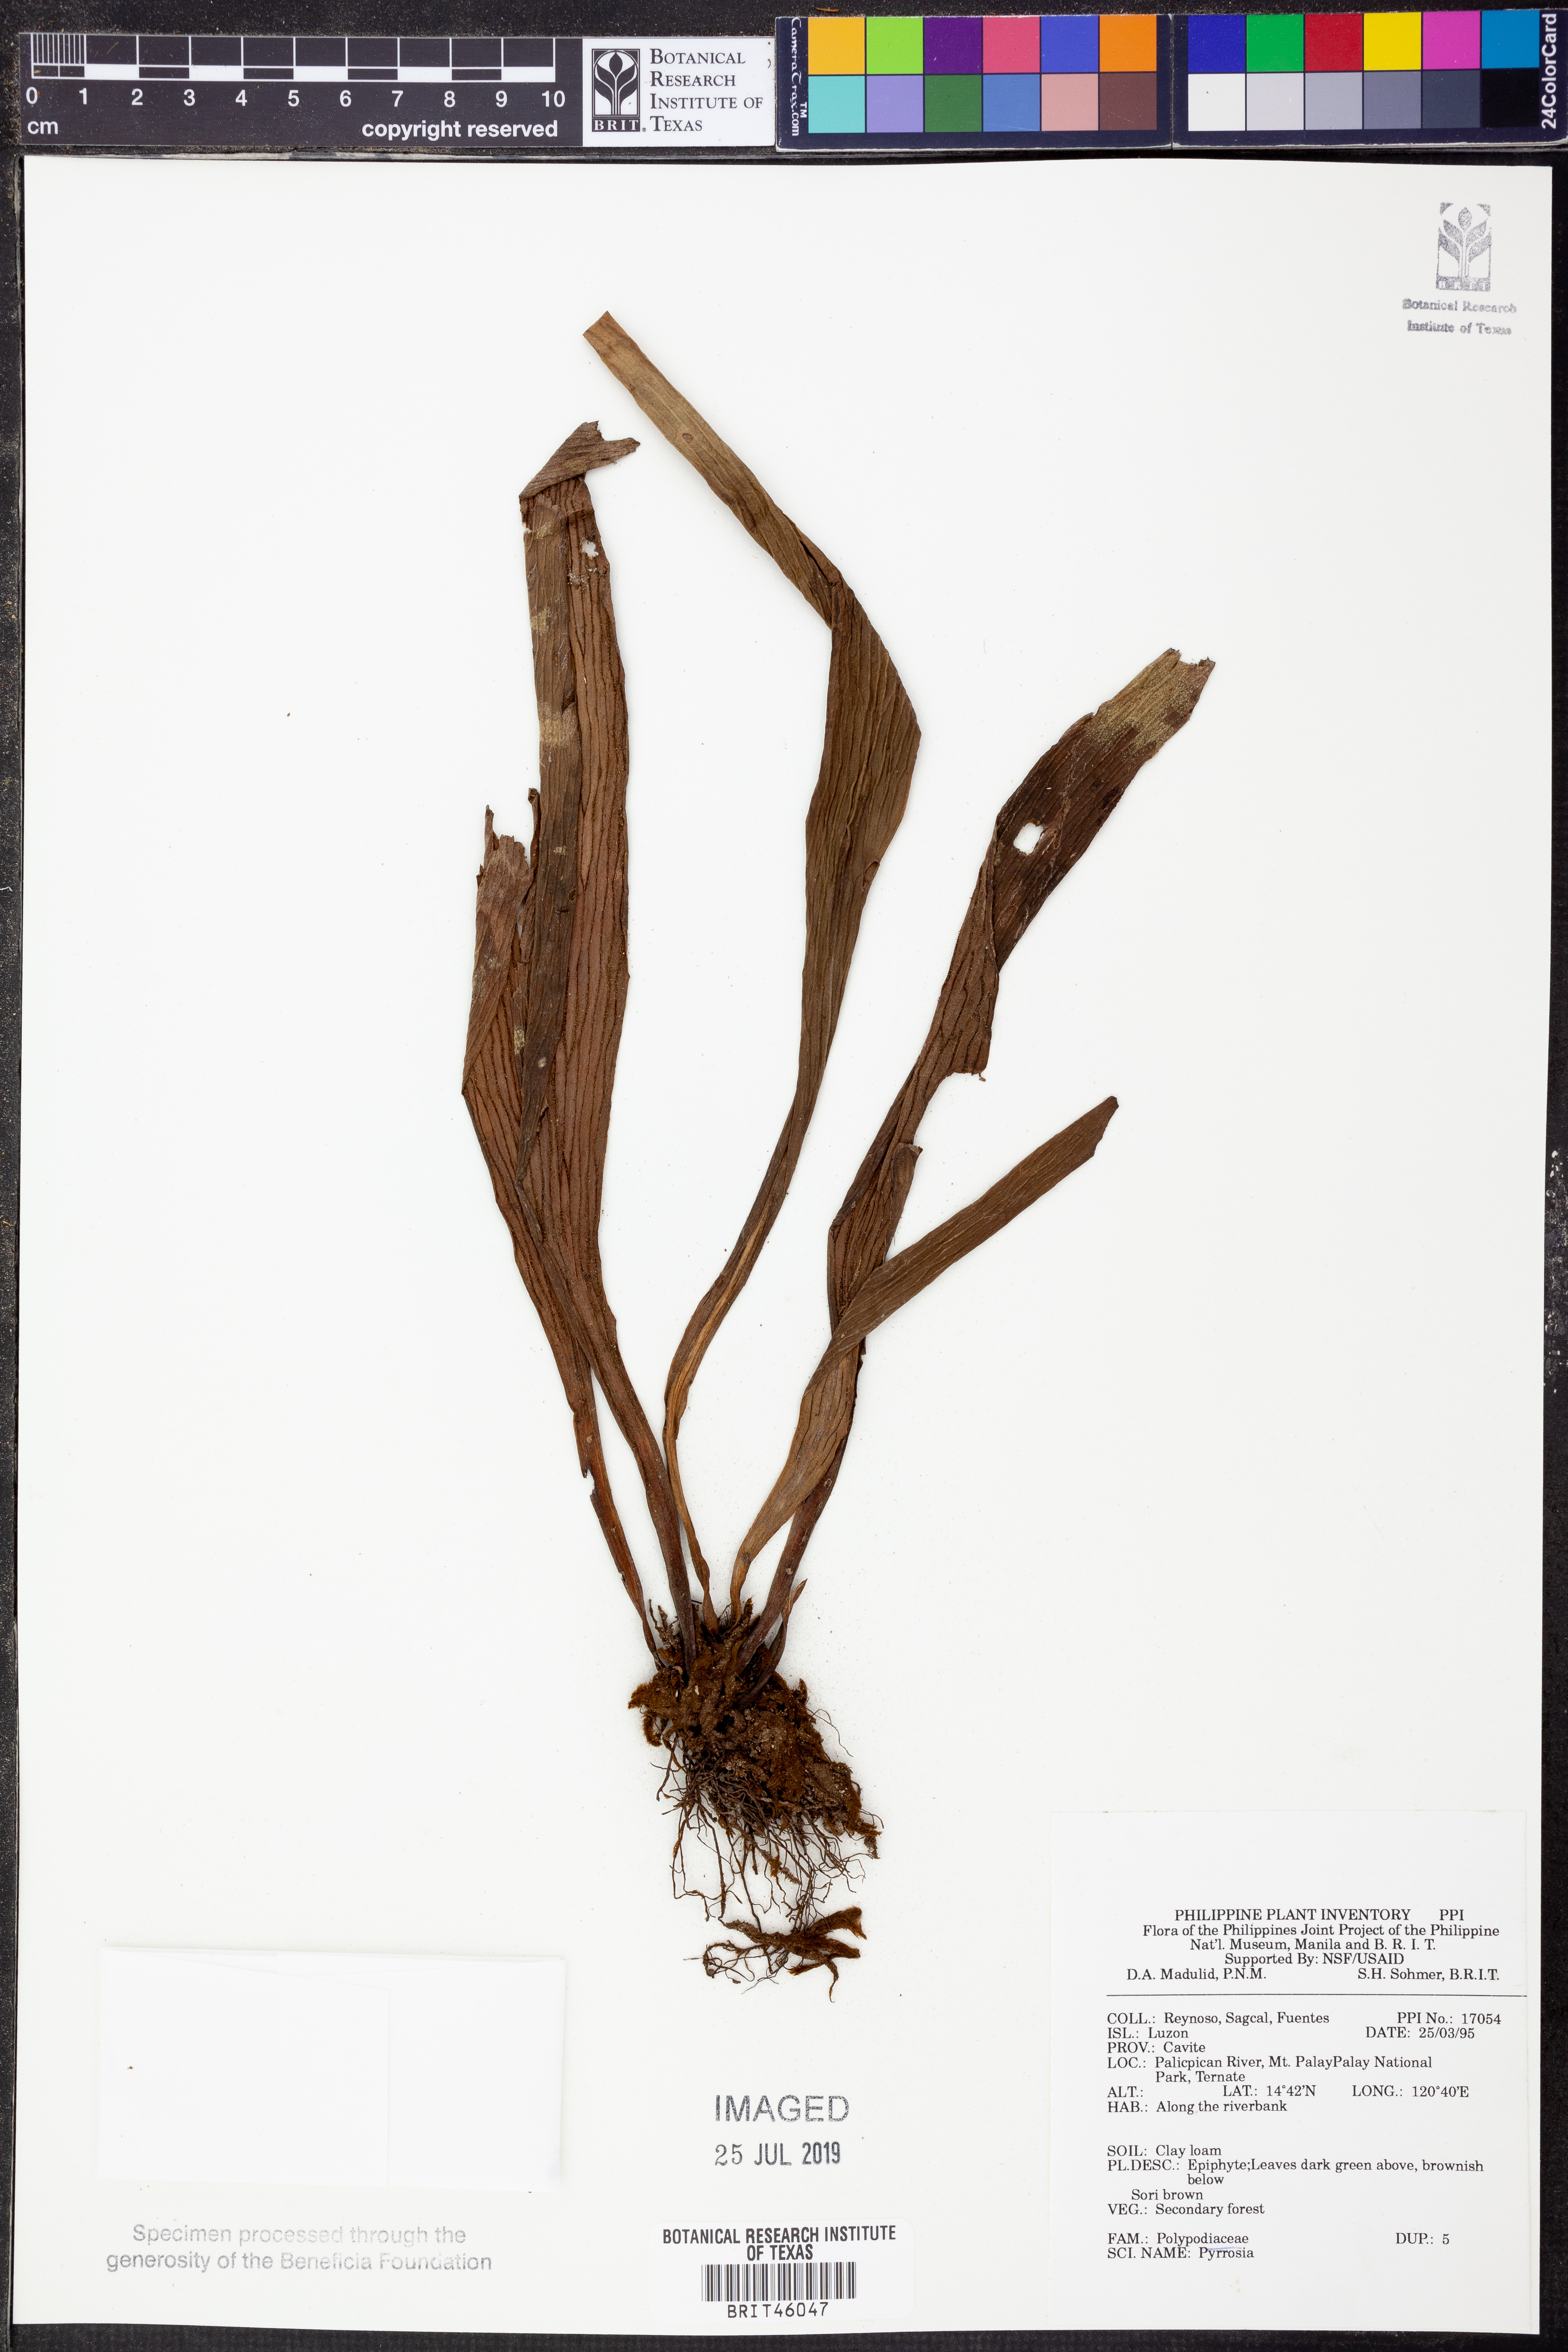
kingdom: Plantae
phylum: Tracheophyta
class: Polypodiopsida
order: Polypodiales
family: Polypodiaceae
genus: Pyrrosia
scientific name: Pyrrosia
